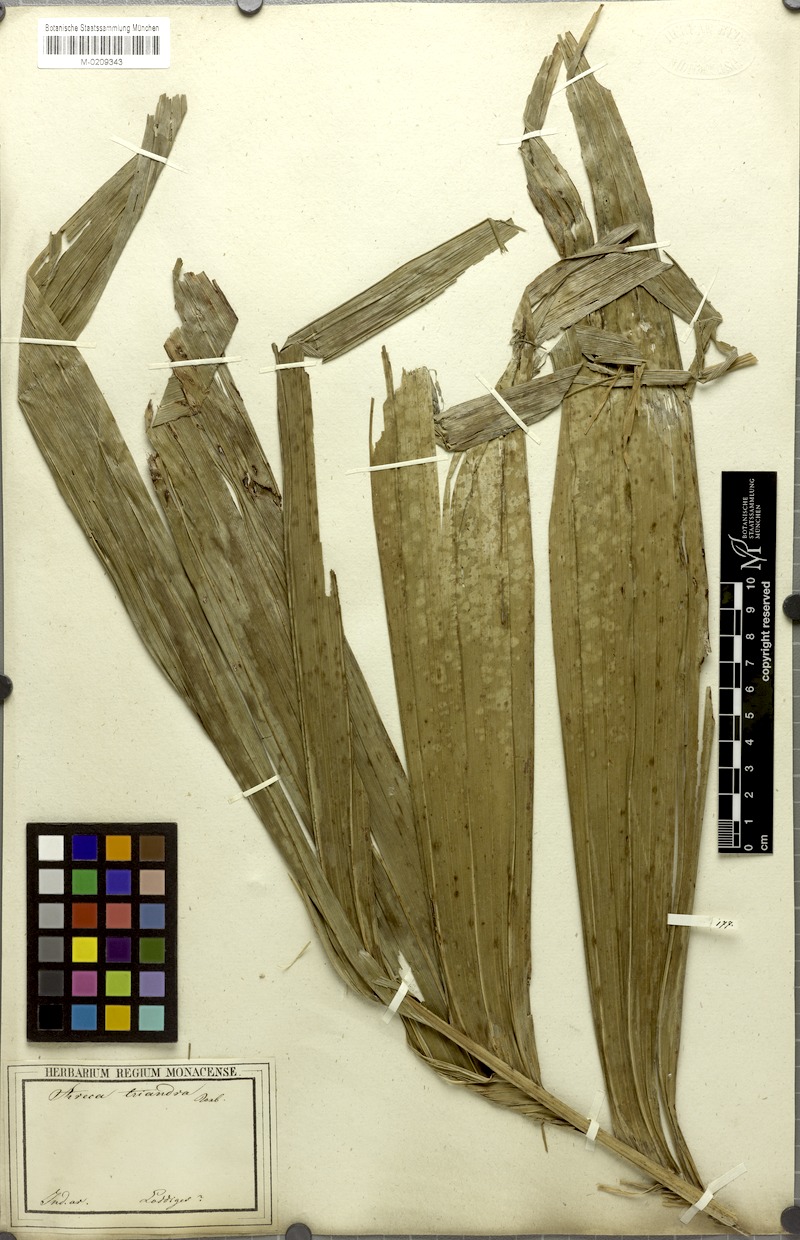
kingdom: Plantae
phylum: Tracheophyta
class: Liliopsida
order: Arecales
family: Arecaceae
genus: Areca
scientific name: Areca triandra
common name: Australian areca palm
